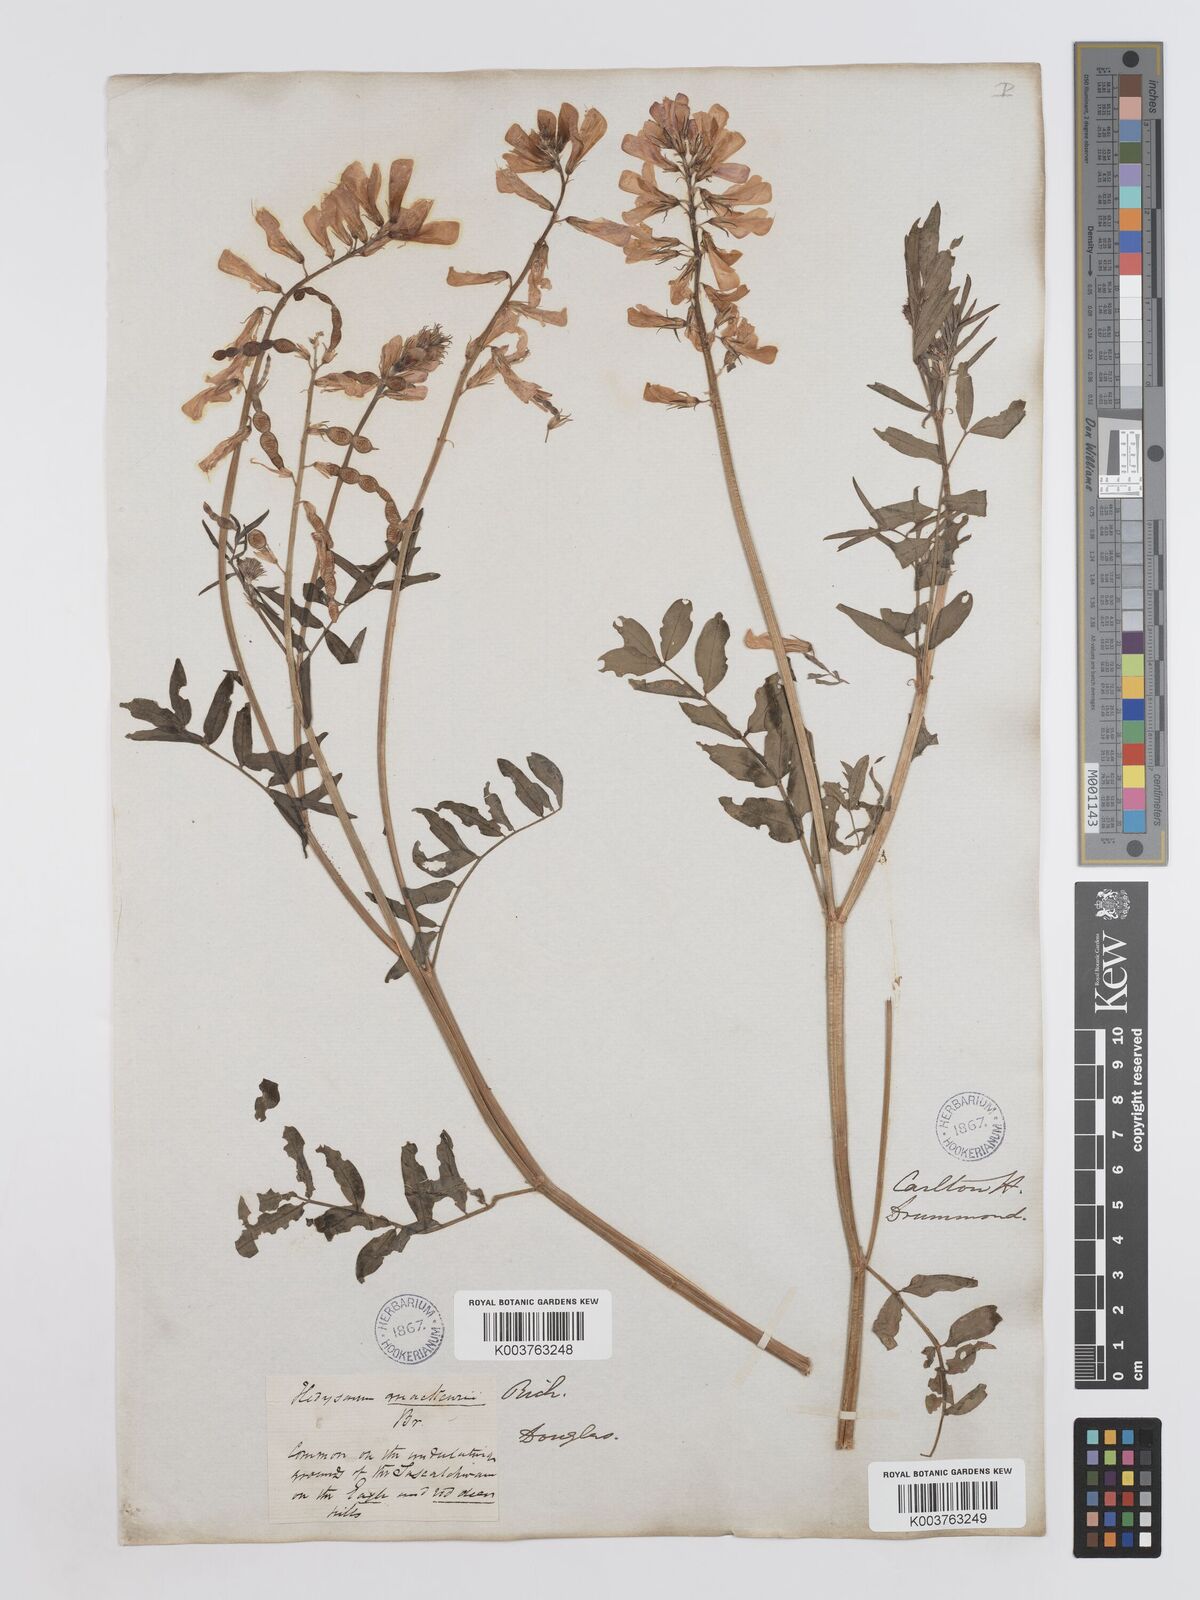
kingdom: Plantae
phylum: Tracheophyta
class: Magnoliopsida
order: Fabales
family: Fabaceae
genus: Hedysarum
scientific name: Hedysarum boreale
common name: Northern sweet-vetch
